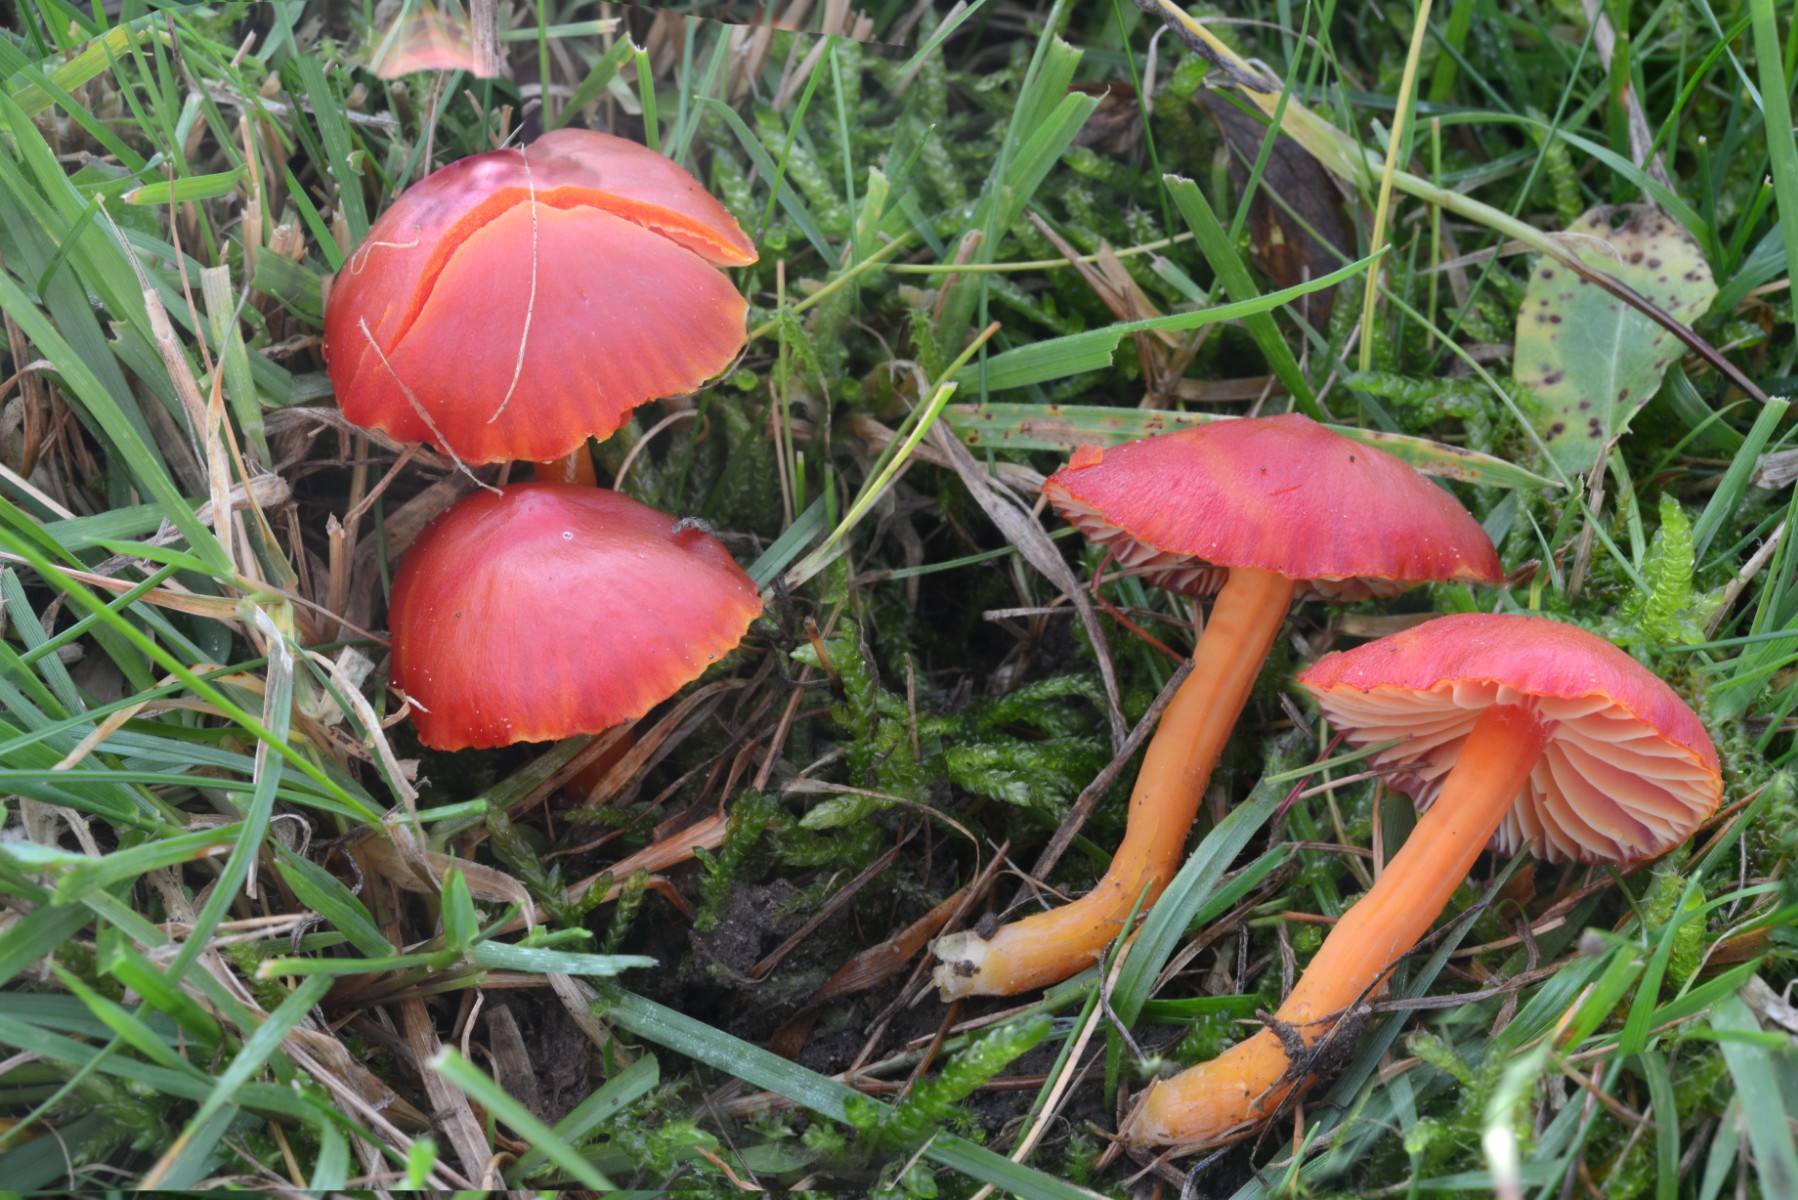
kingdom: Fungi
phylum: Basidiomycota
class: Agaricomycetes
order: Agaricales
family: Hygrophoraceae
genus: Hygrocybe
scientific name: Hygrocybe coccinea
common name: cinnober-vokshat
